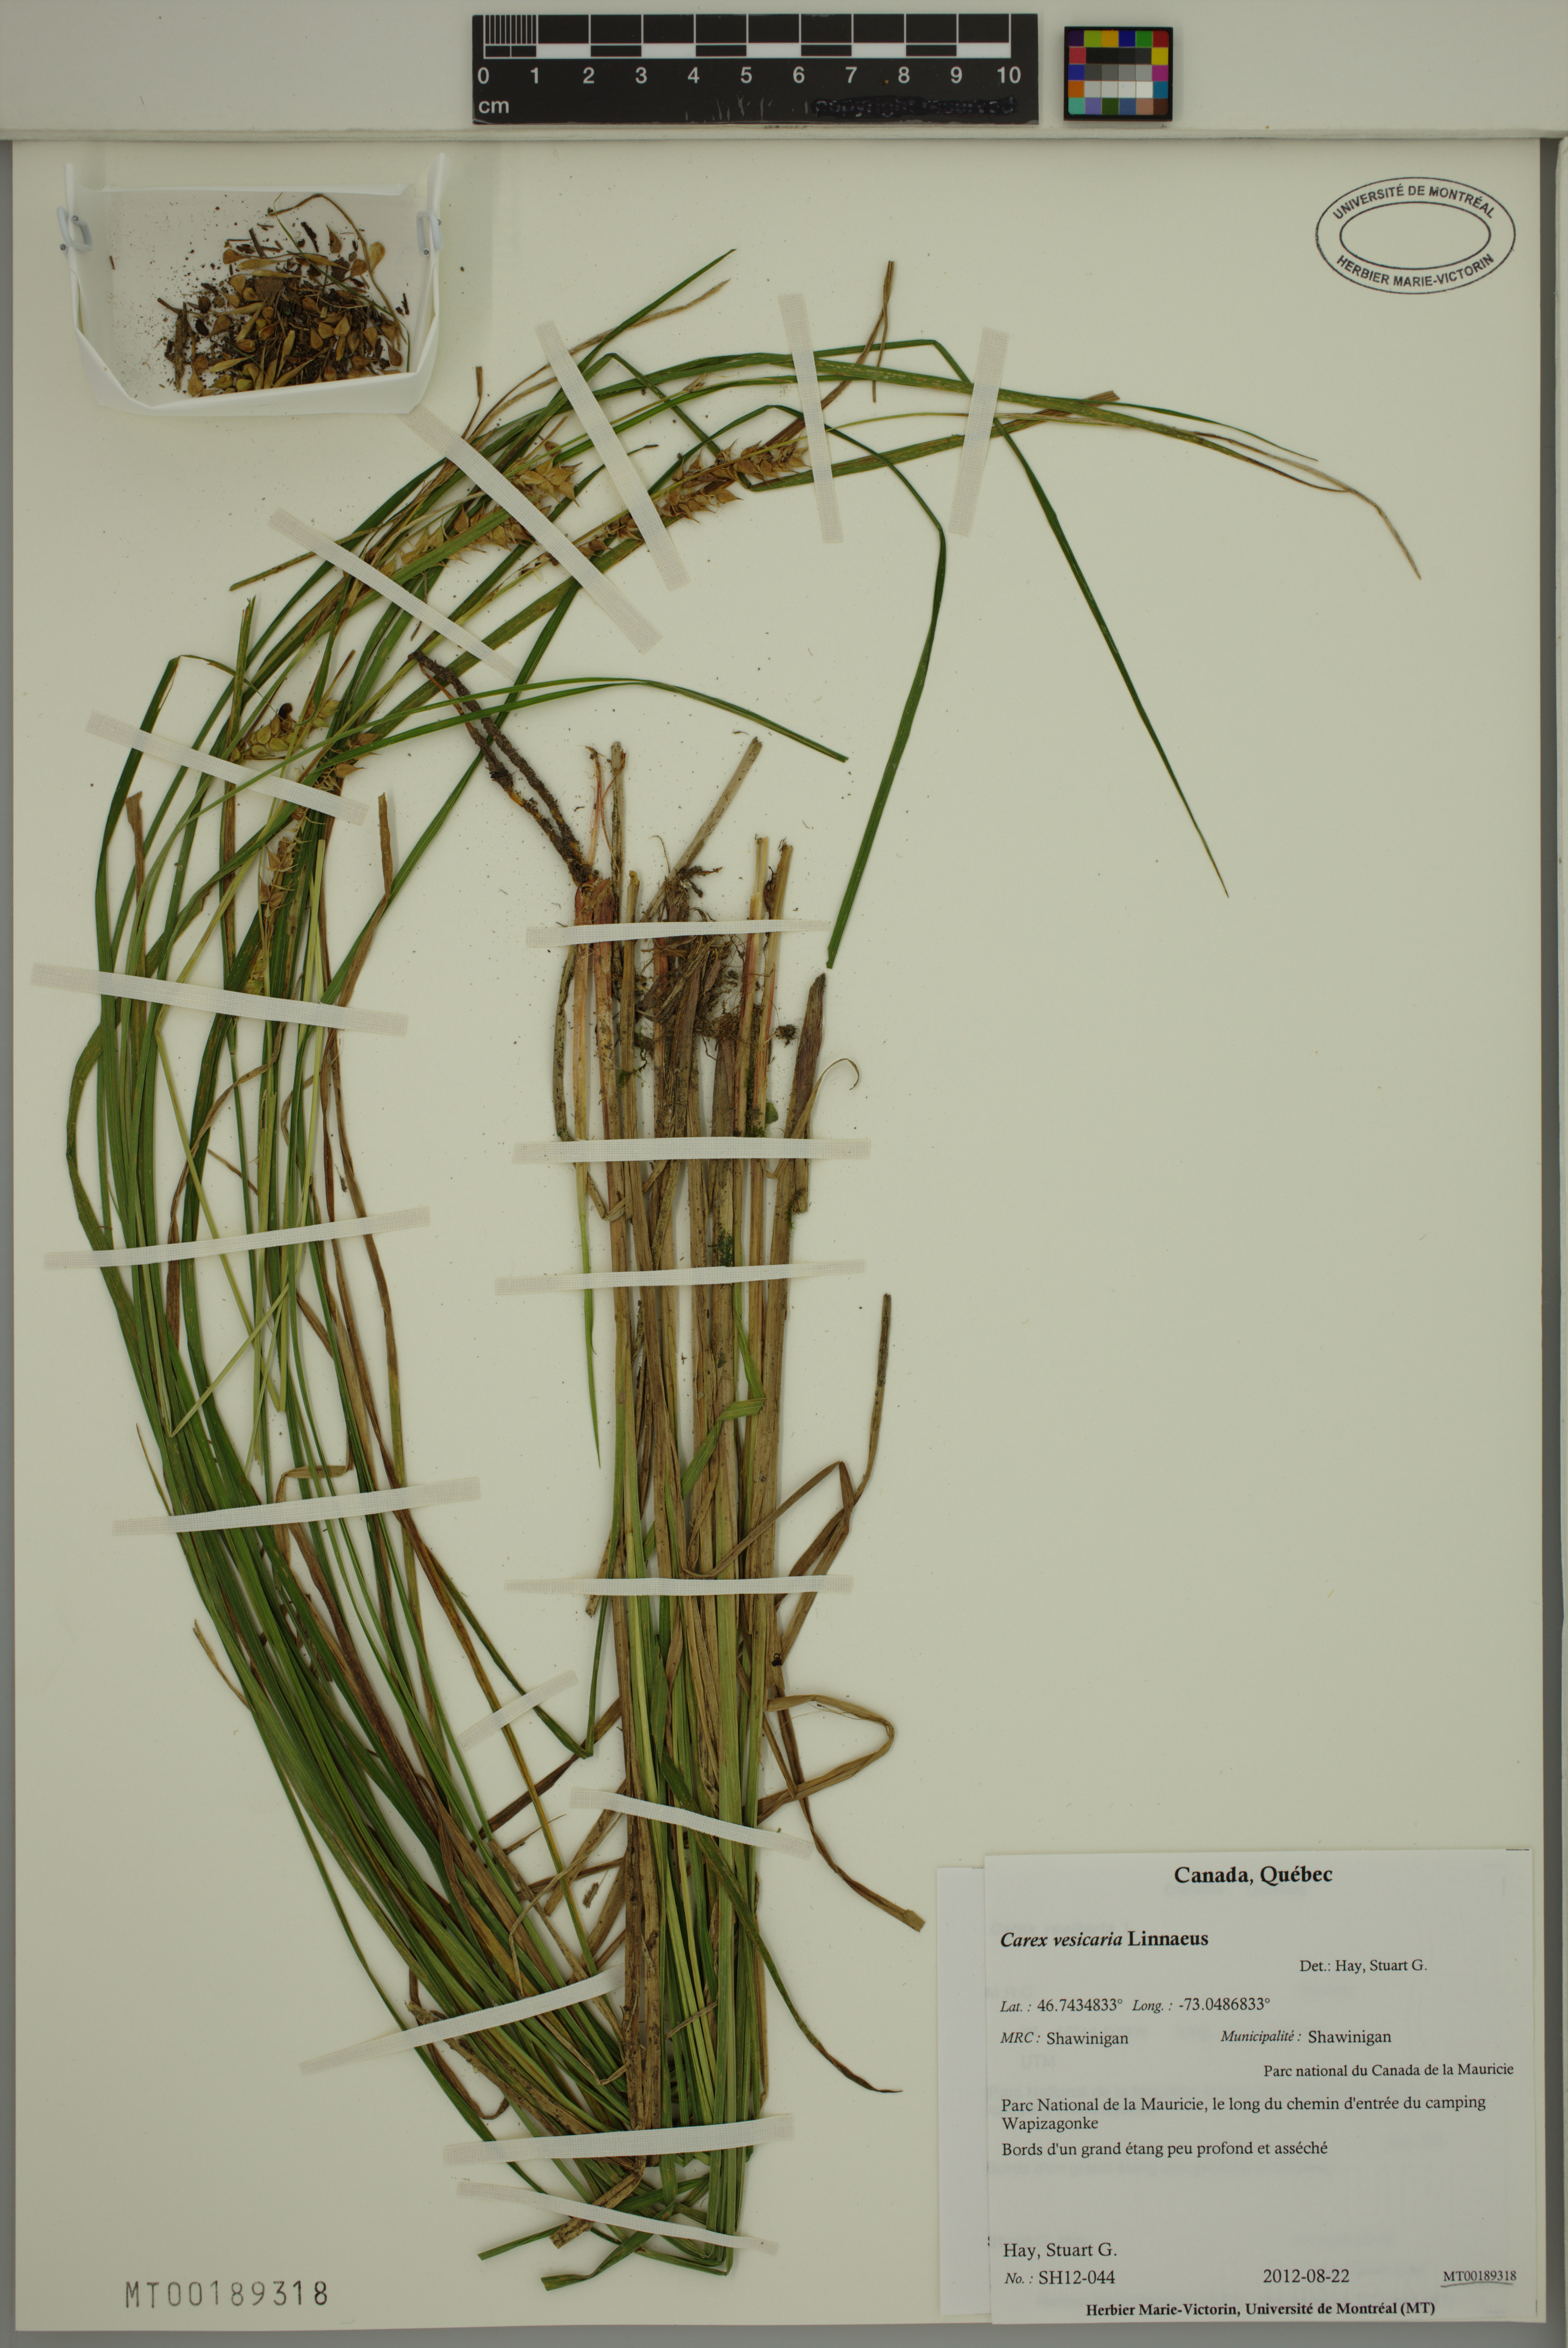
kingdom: Plantae
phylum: Tracheophyta
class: Liliopsida
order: Poales
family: Cyperaceae
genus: Carex
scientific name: Carex vesicaria
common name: Bladder-sedge
